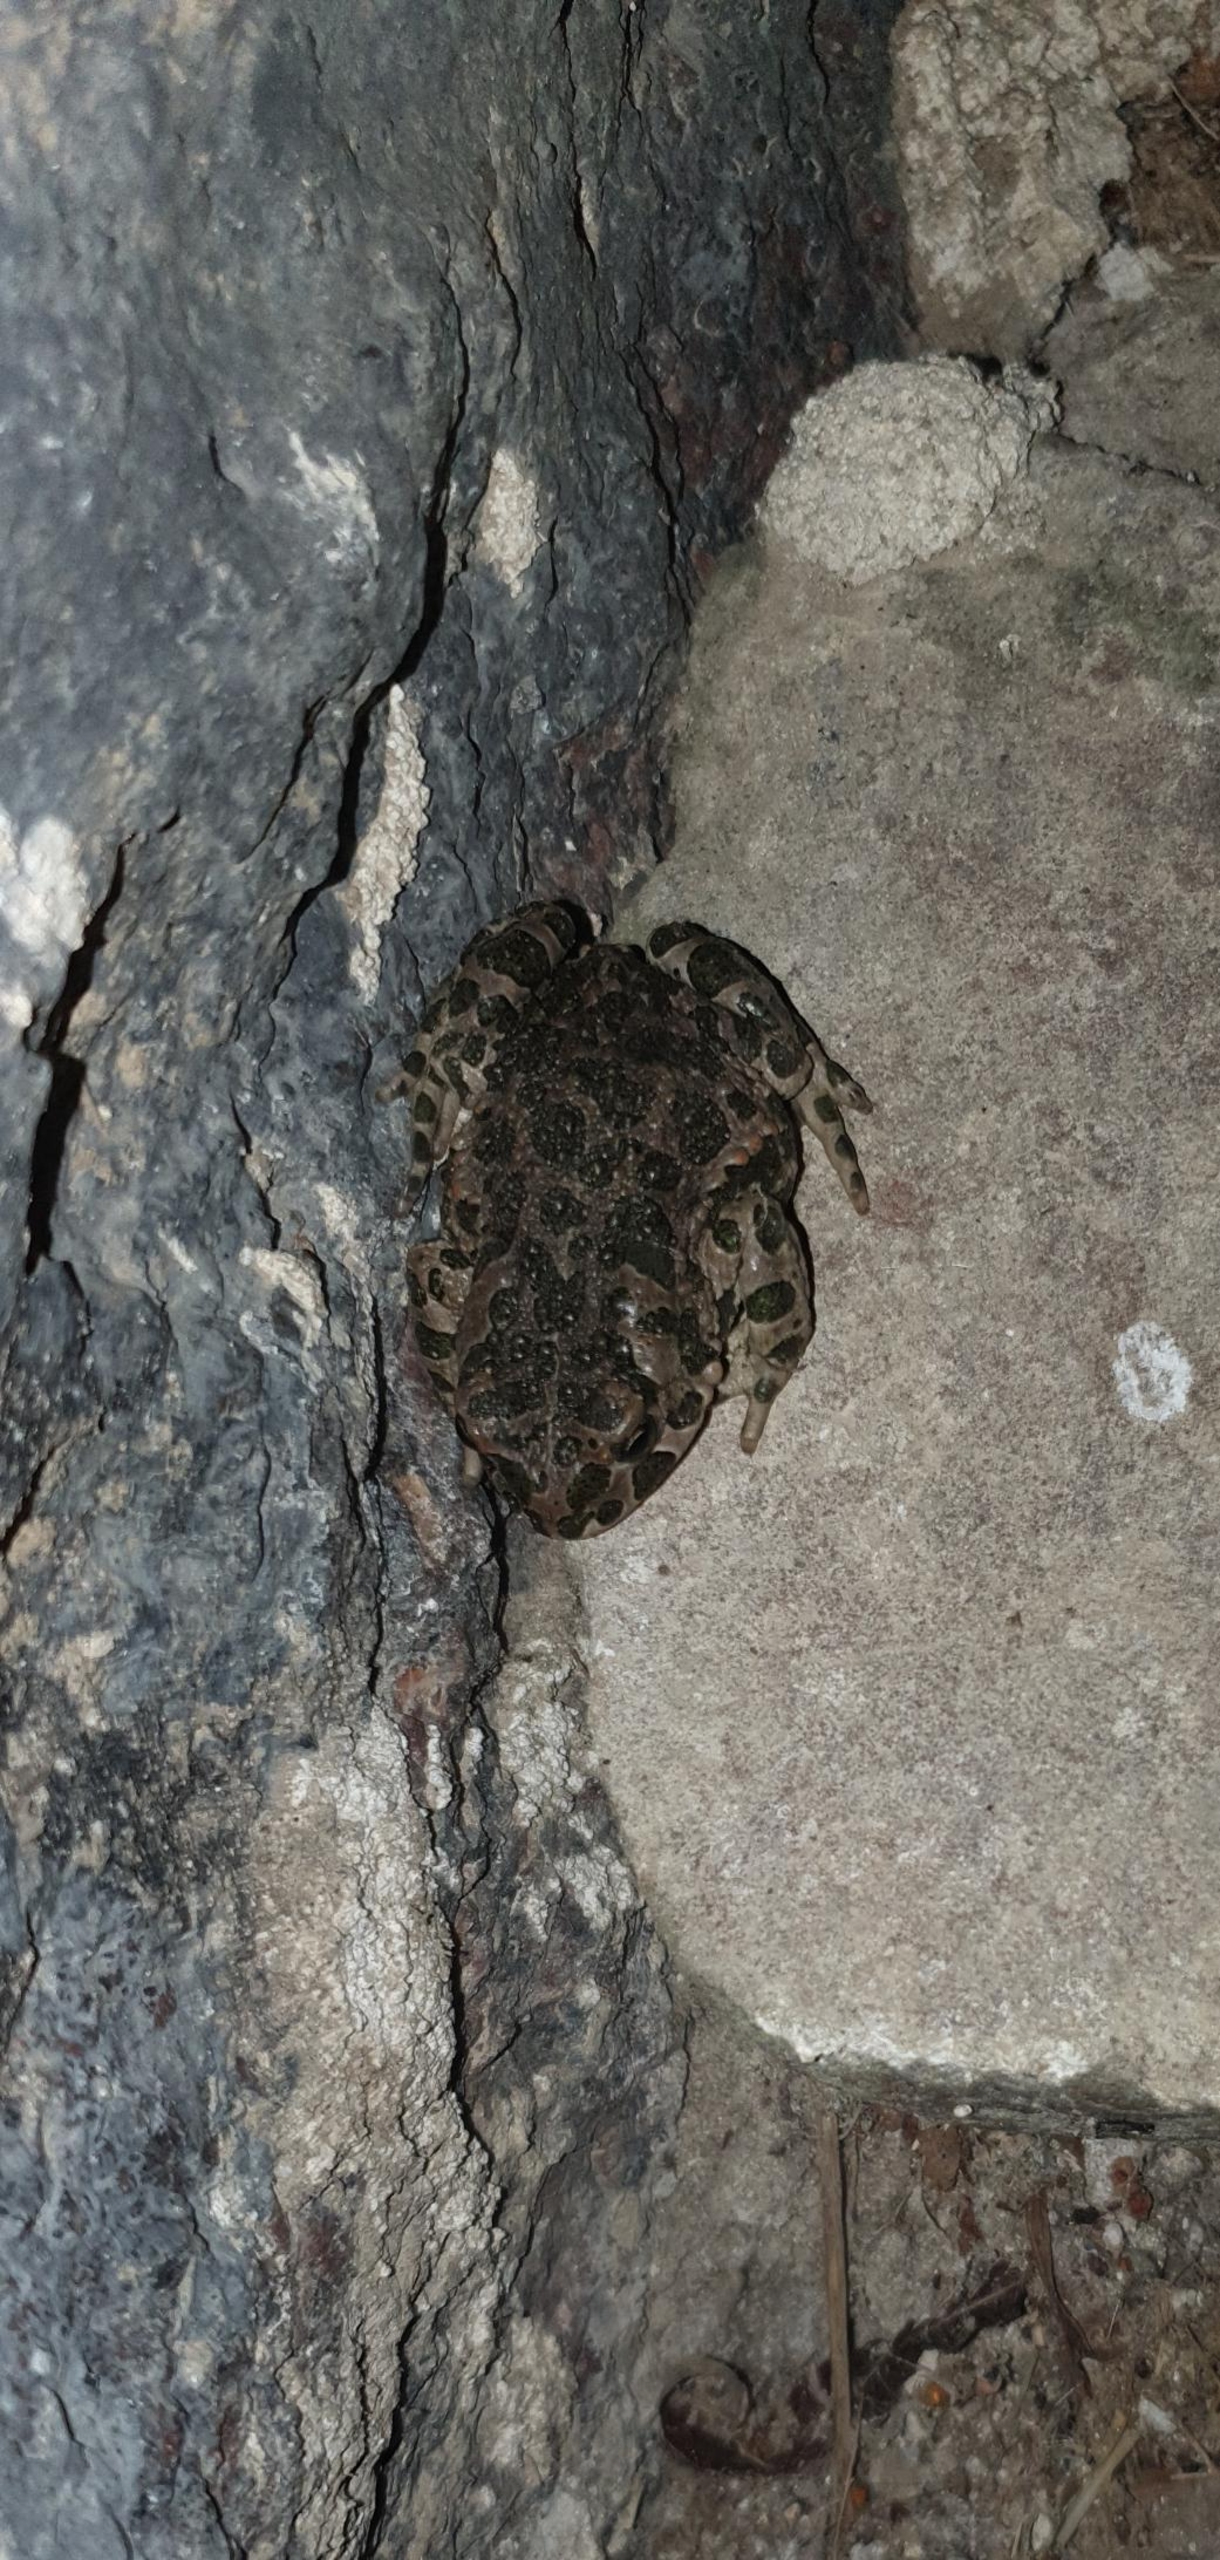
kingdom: Animalia
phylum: Chordata
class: Amphibia
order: Anura
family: Bufonidae
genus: Bufotes
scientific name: Bufotes viridis
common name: Grønbroget tudse
